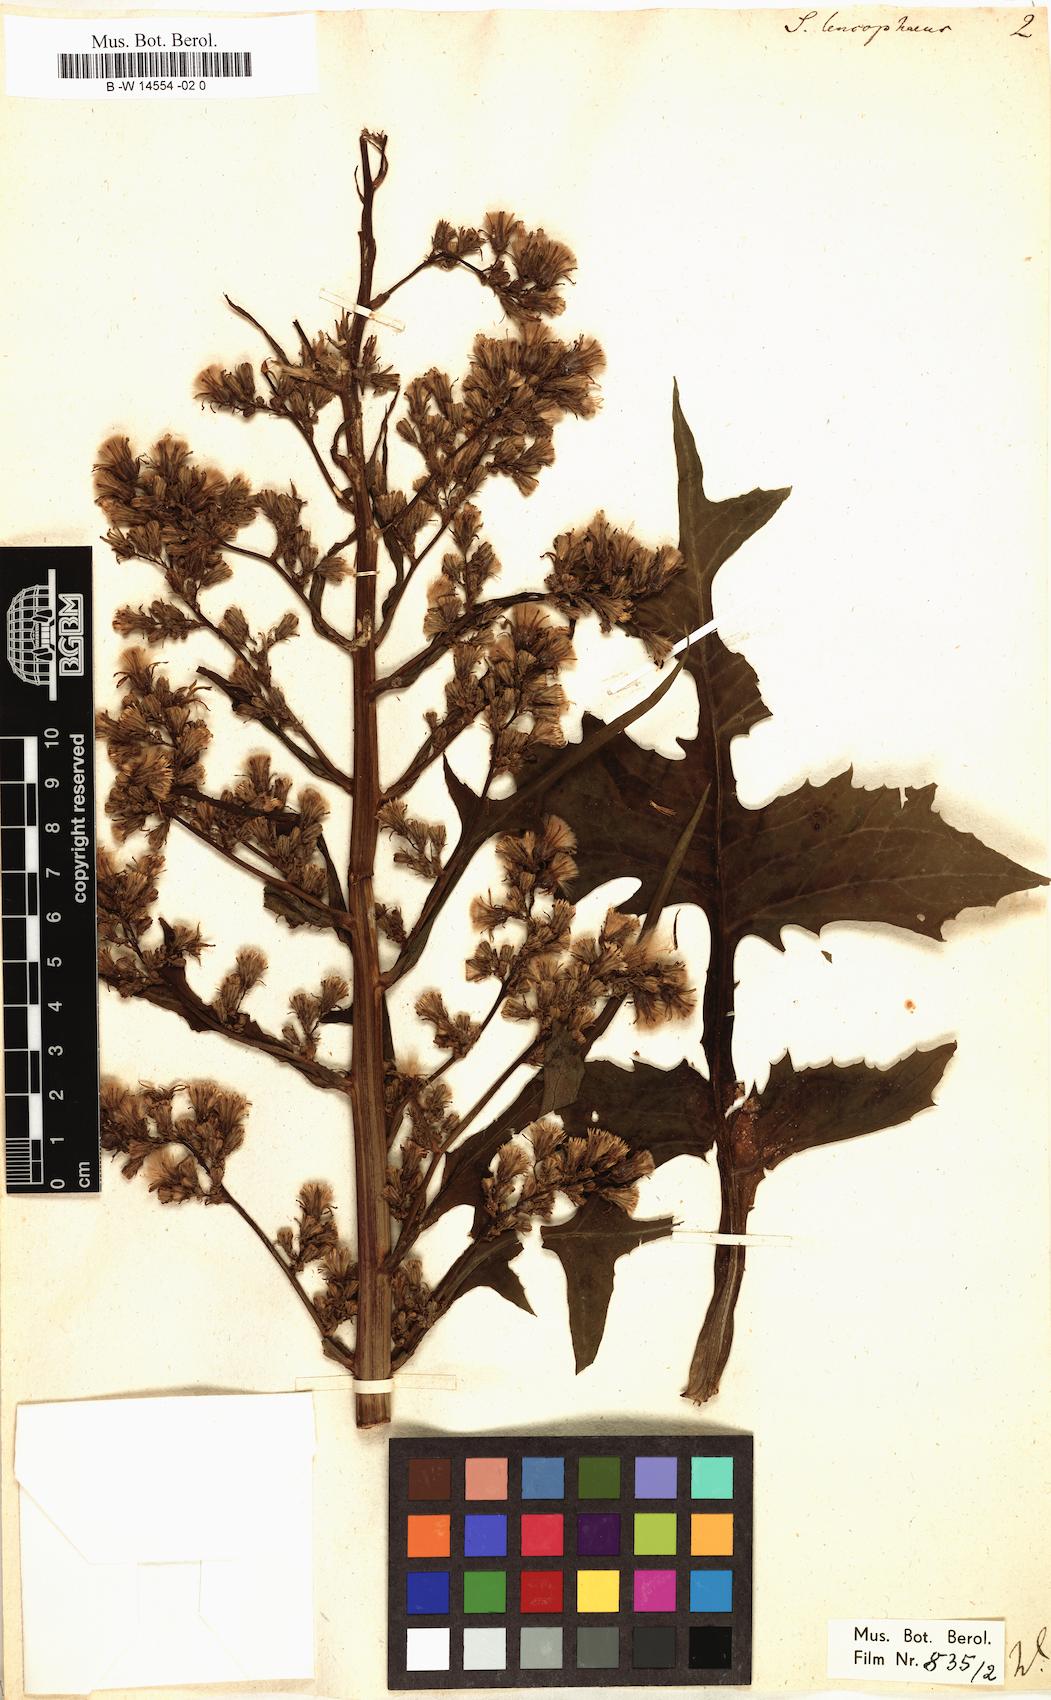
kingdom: Plantae
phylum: Tracheophyta
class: Magnoliopsida
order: Asterales
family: Asteraceae
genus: Cicerbita
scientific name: Cicerbita alpina
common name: Alpine blue-sow-thistle
